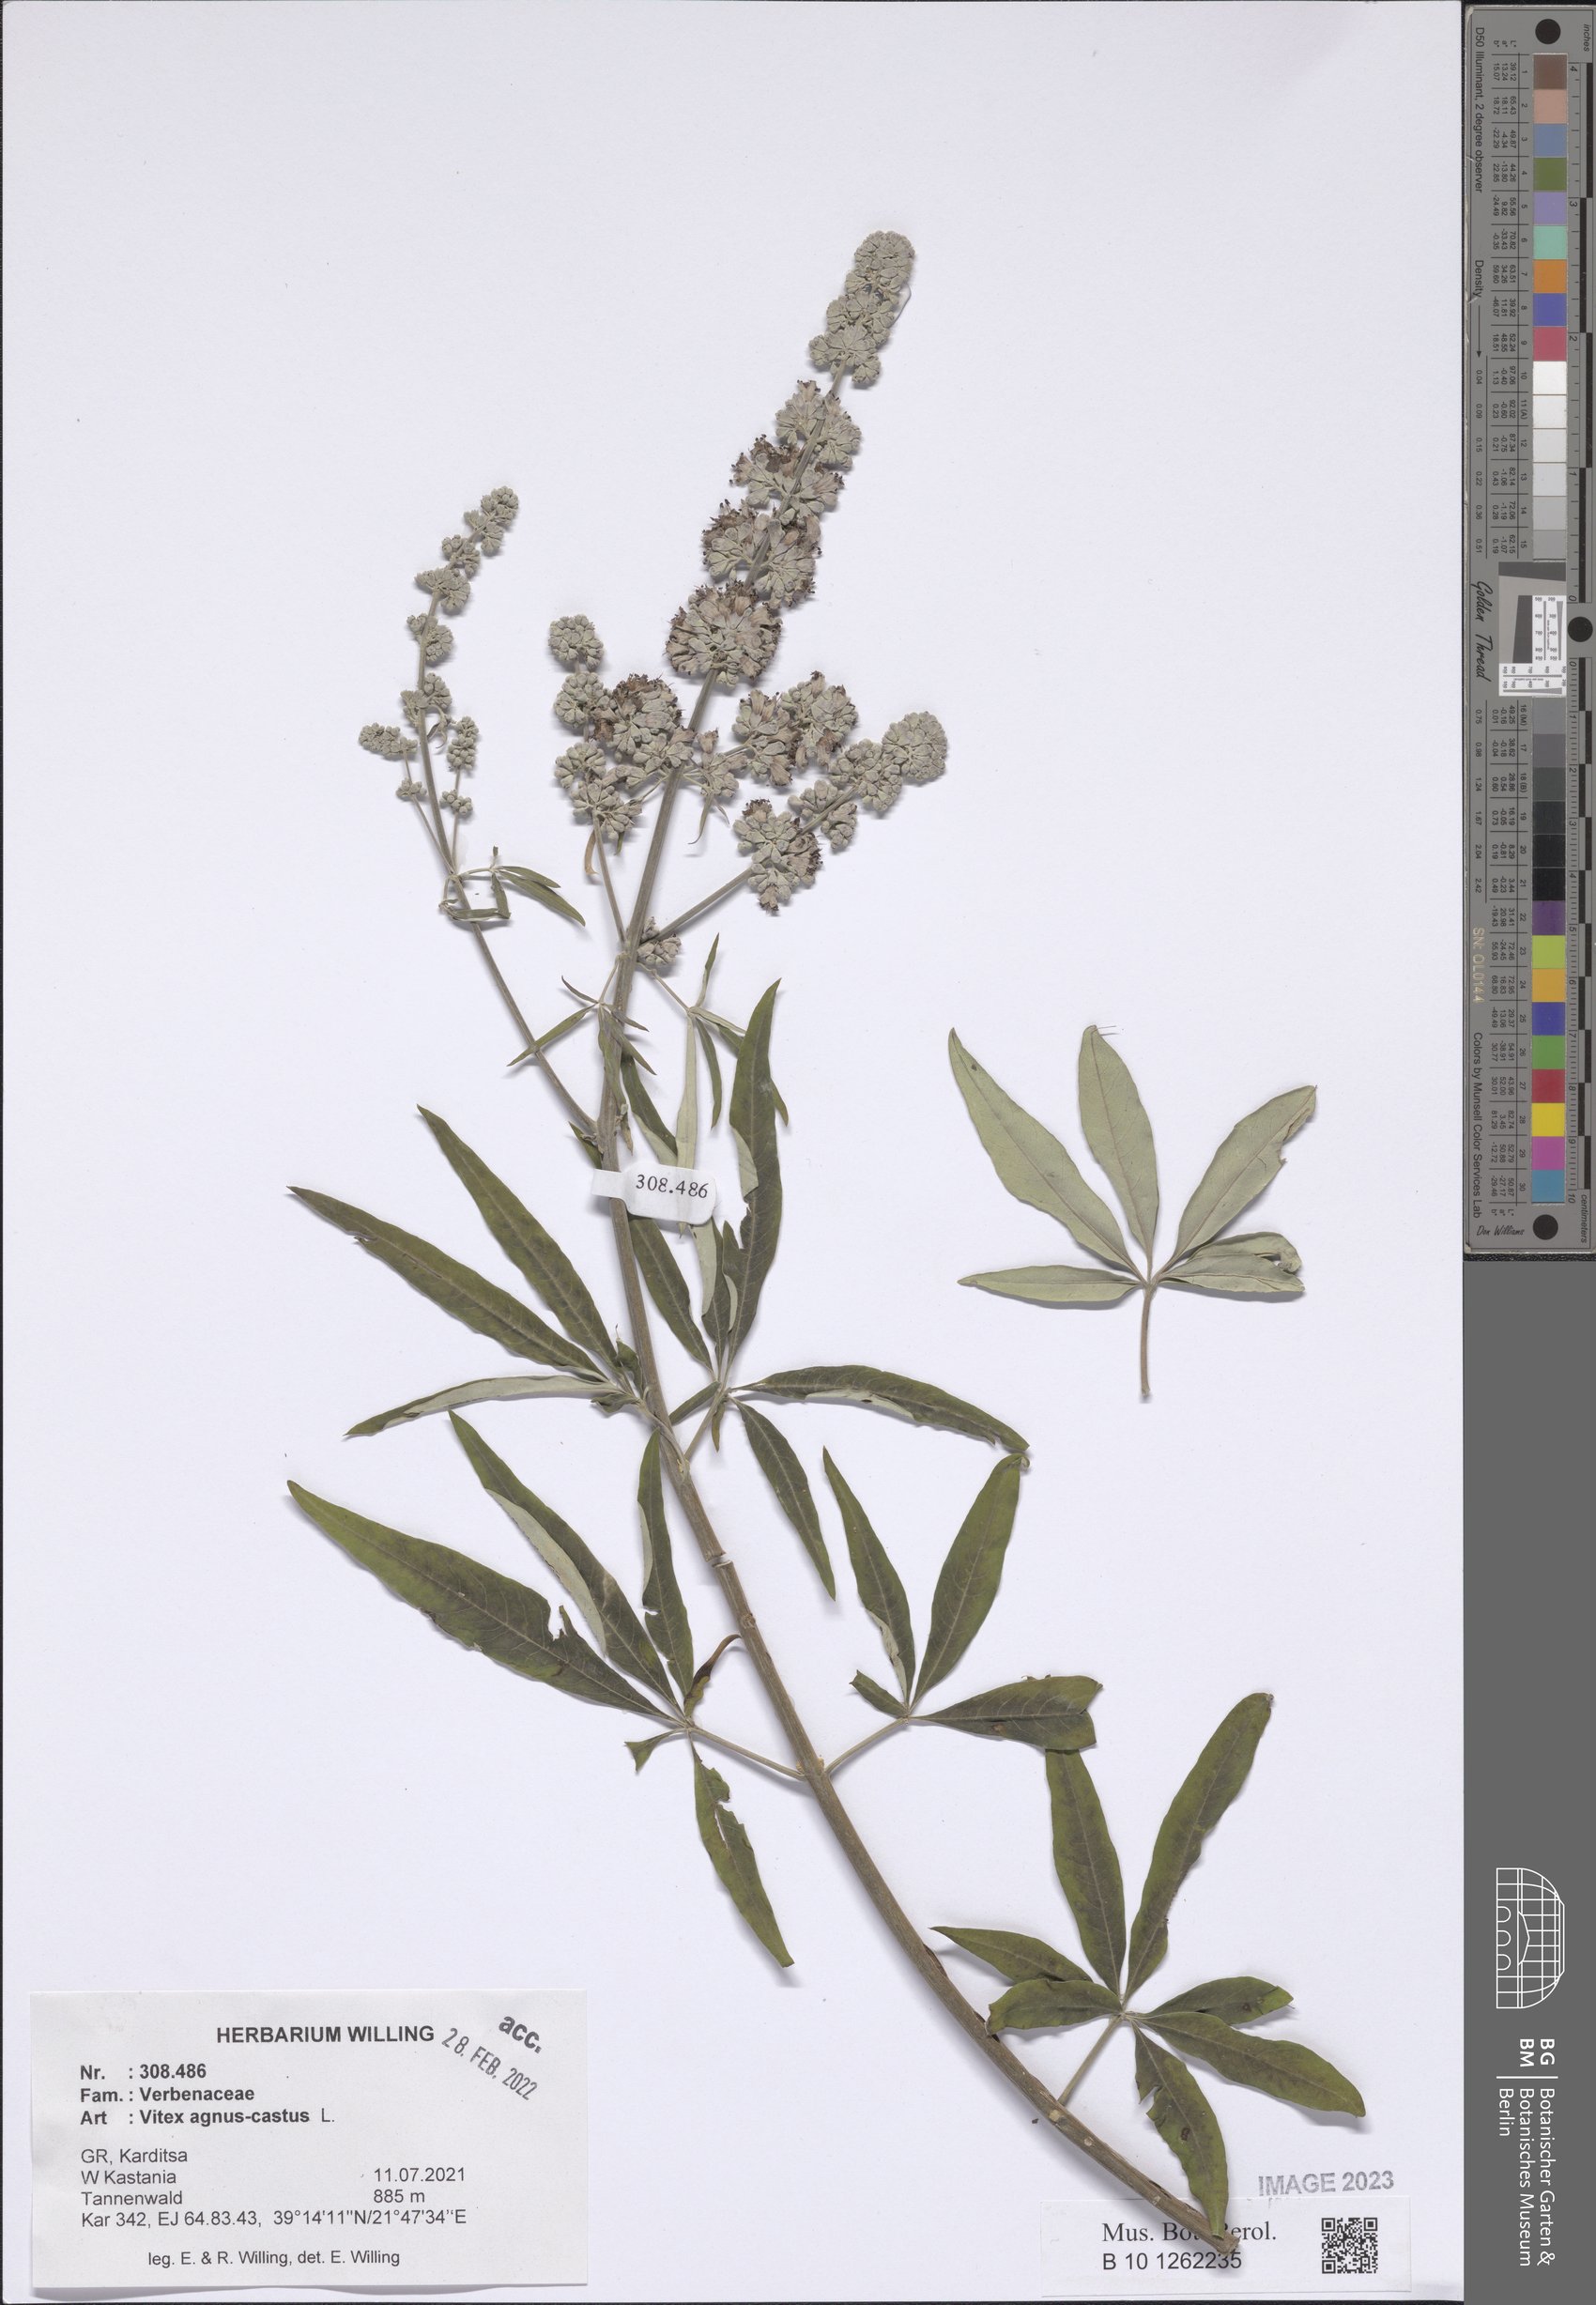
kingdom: Plantae
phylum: Tracheophyta
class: Magnoliopsida
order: Lamiales
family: Lamiaceae
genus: Vitex
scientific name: Vitex agnus-castus
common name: Chasteberry
